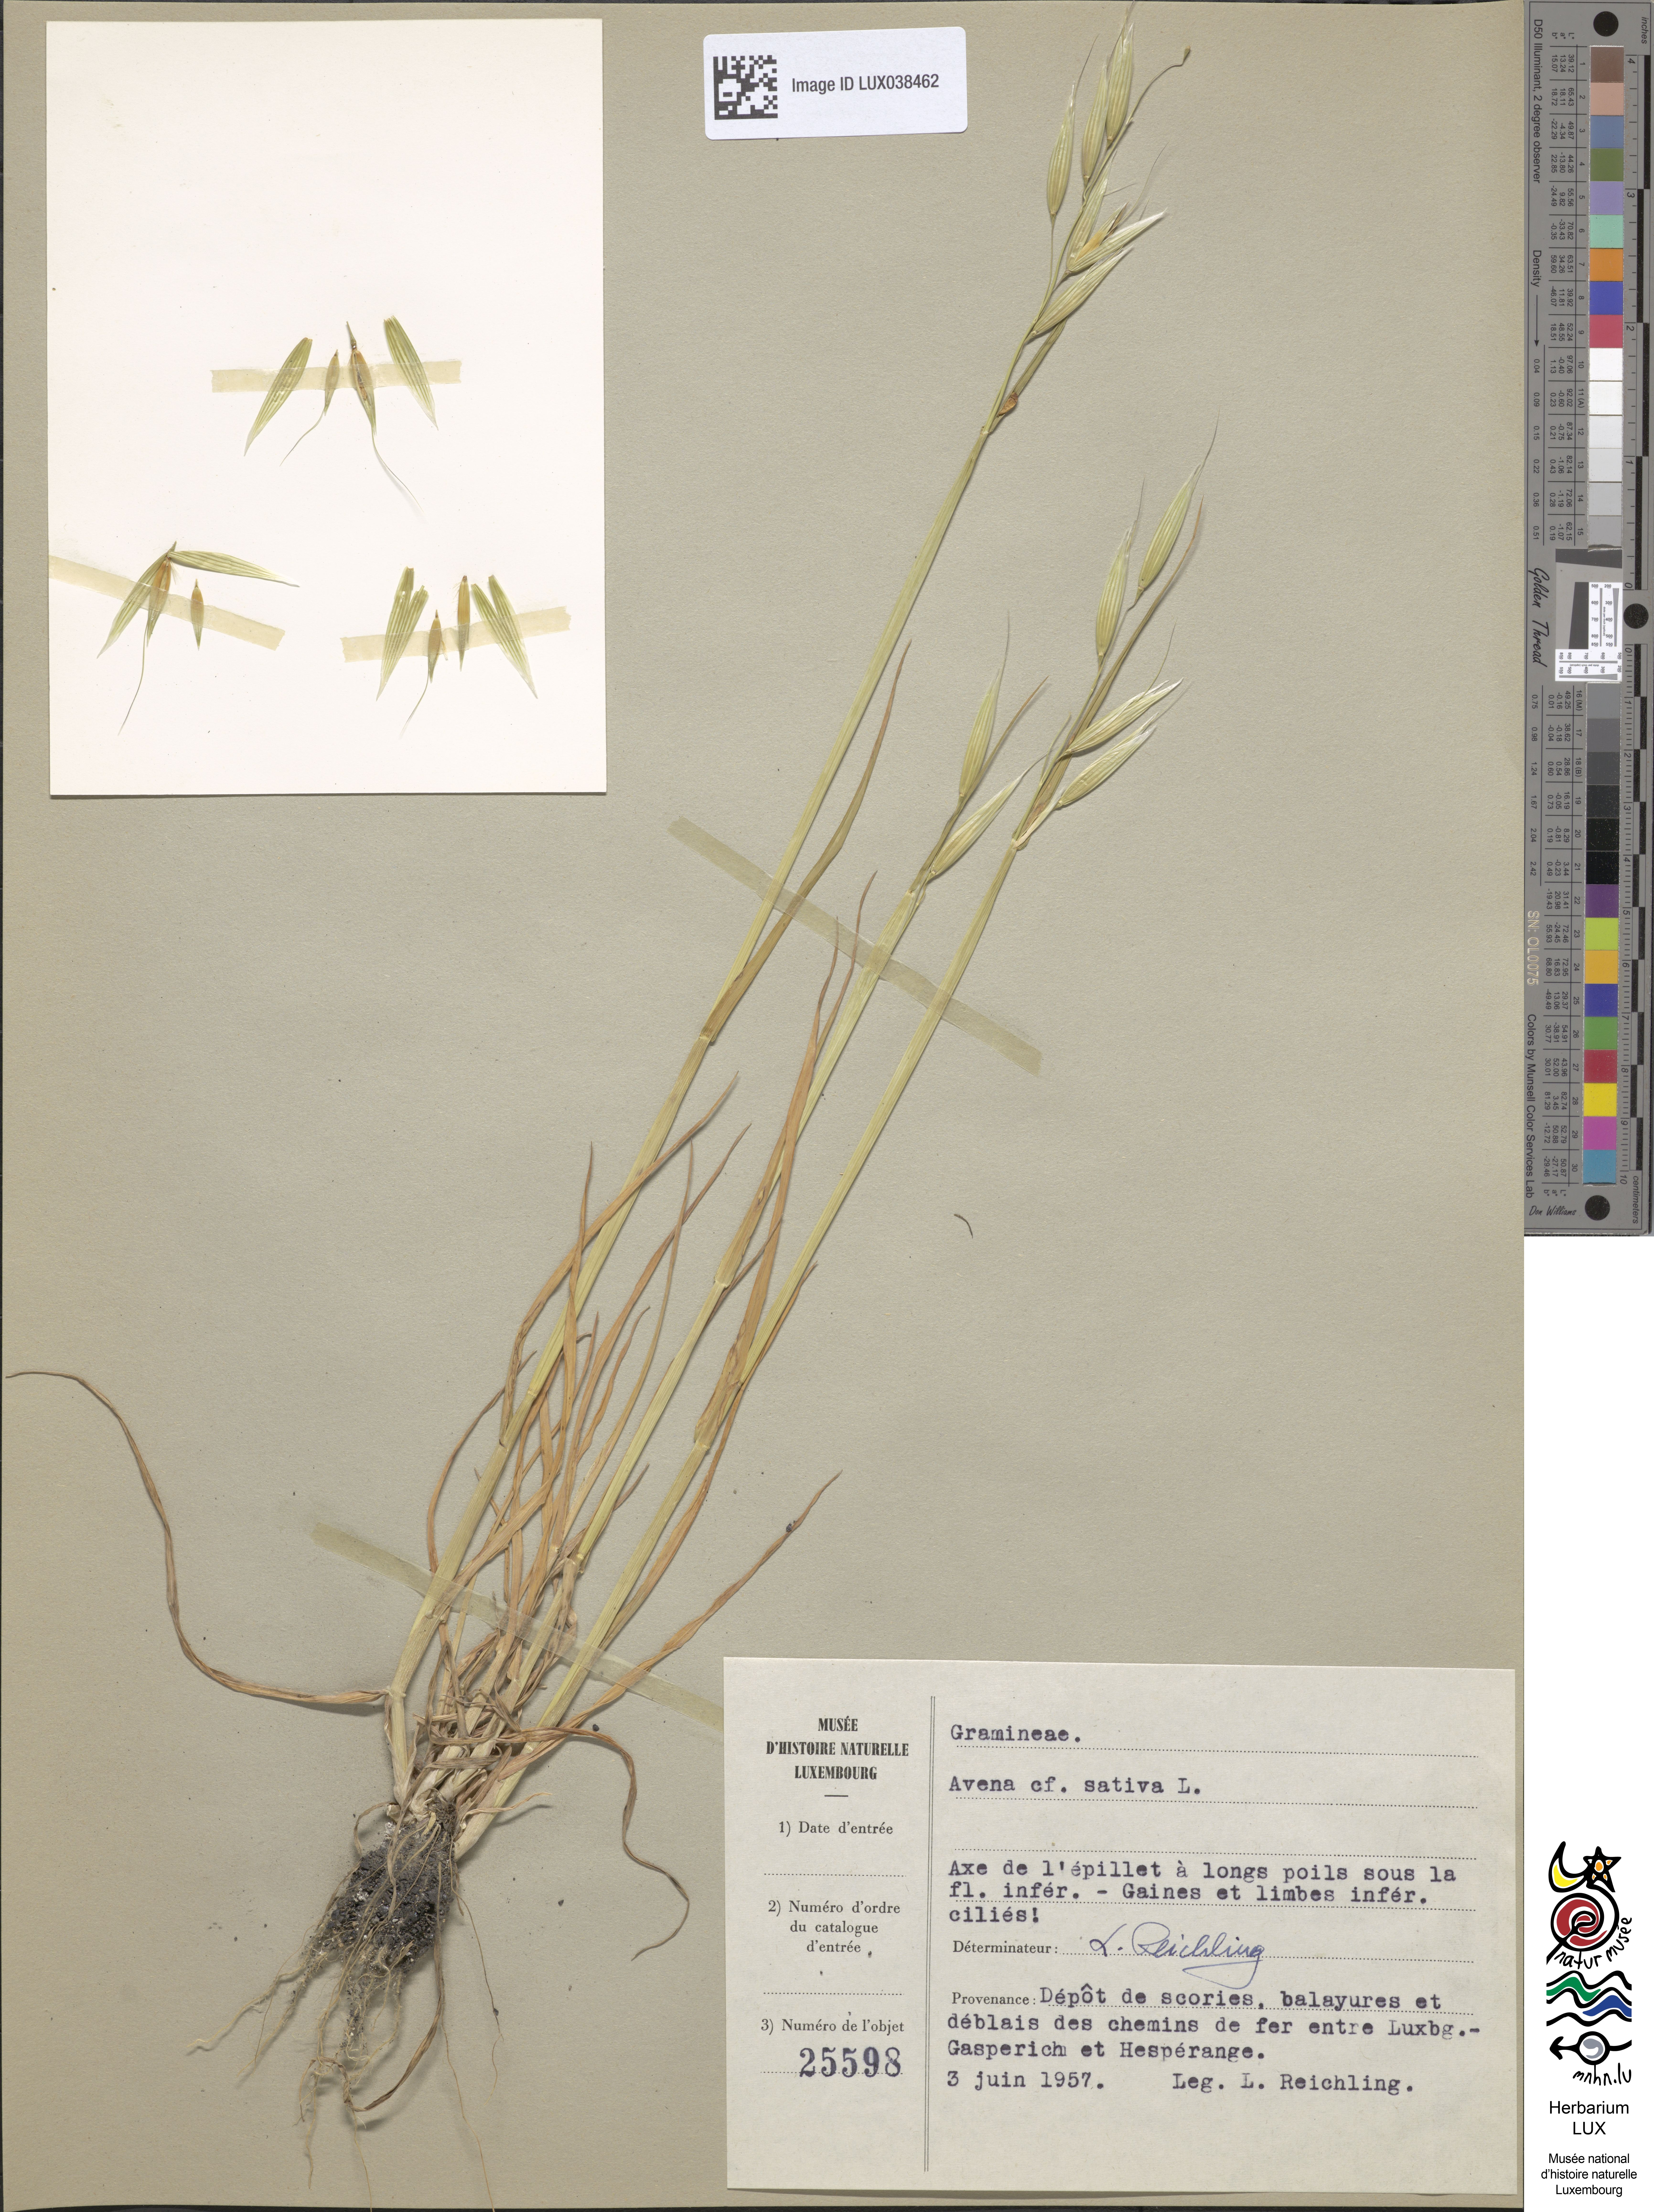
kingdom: Plantae
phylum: Tracheophyta
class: Liliopsida
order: Poales
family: Poaceae
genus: Avena
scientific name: Avena sativa
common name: Oat
